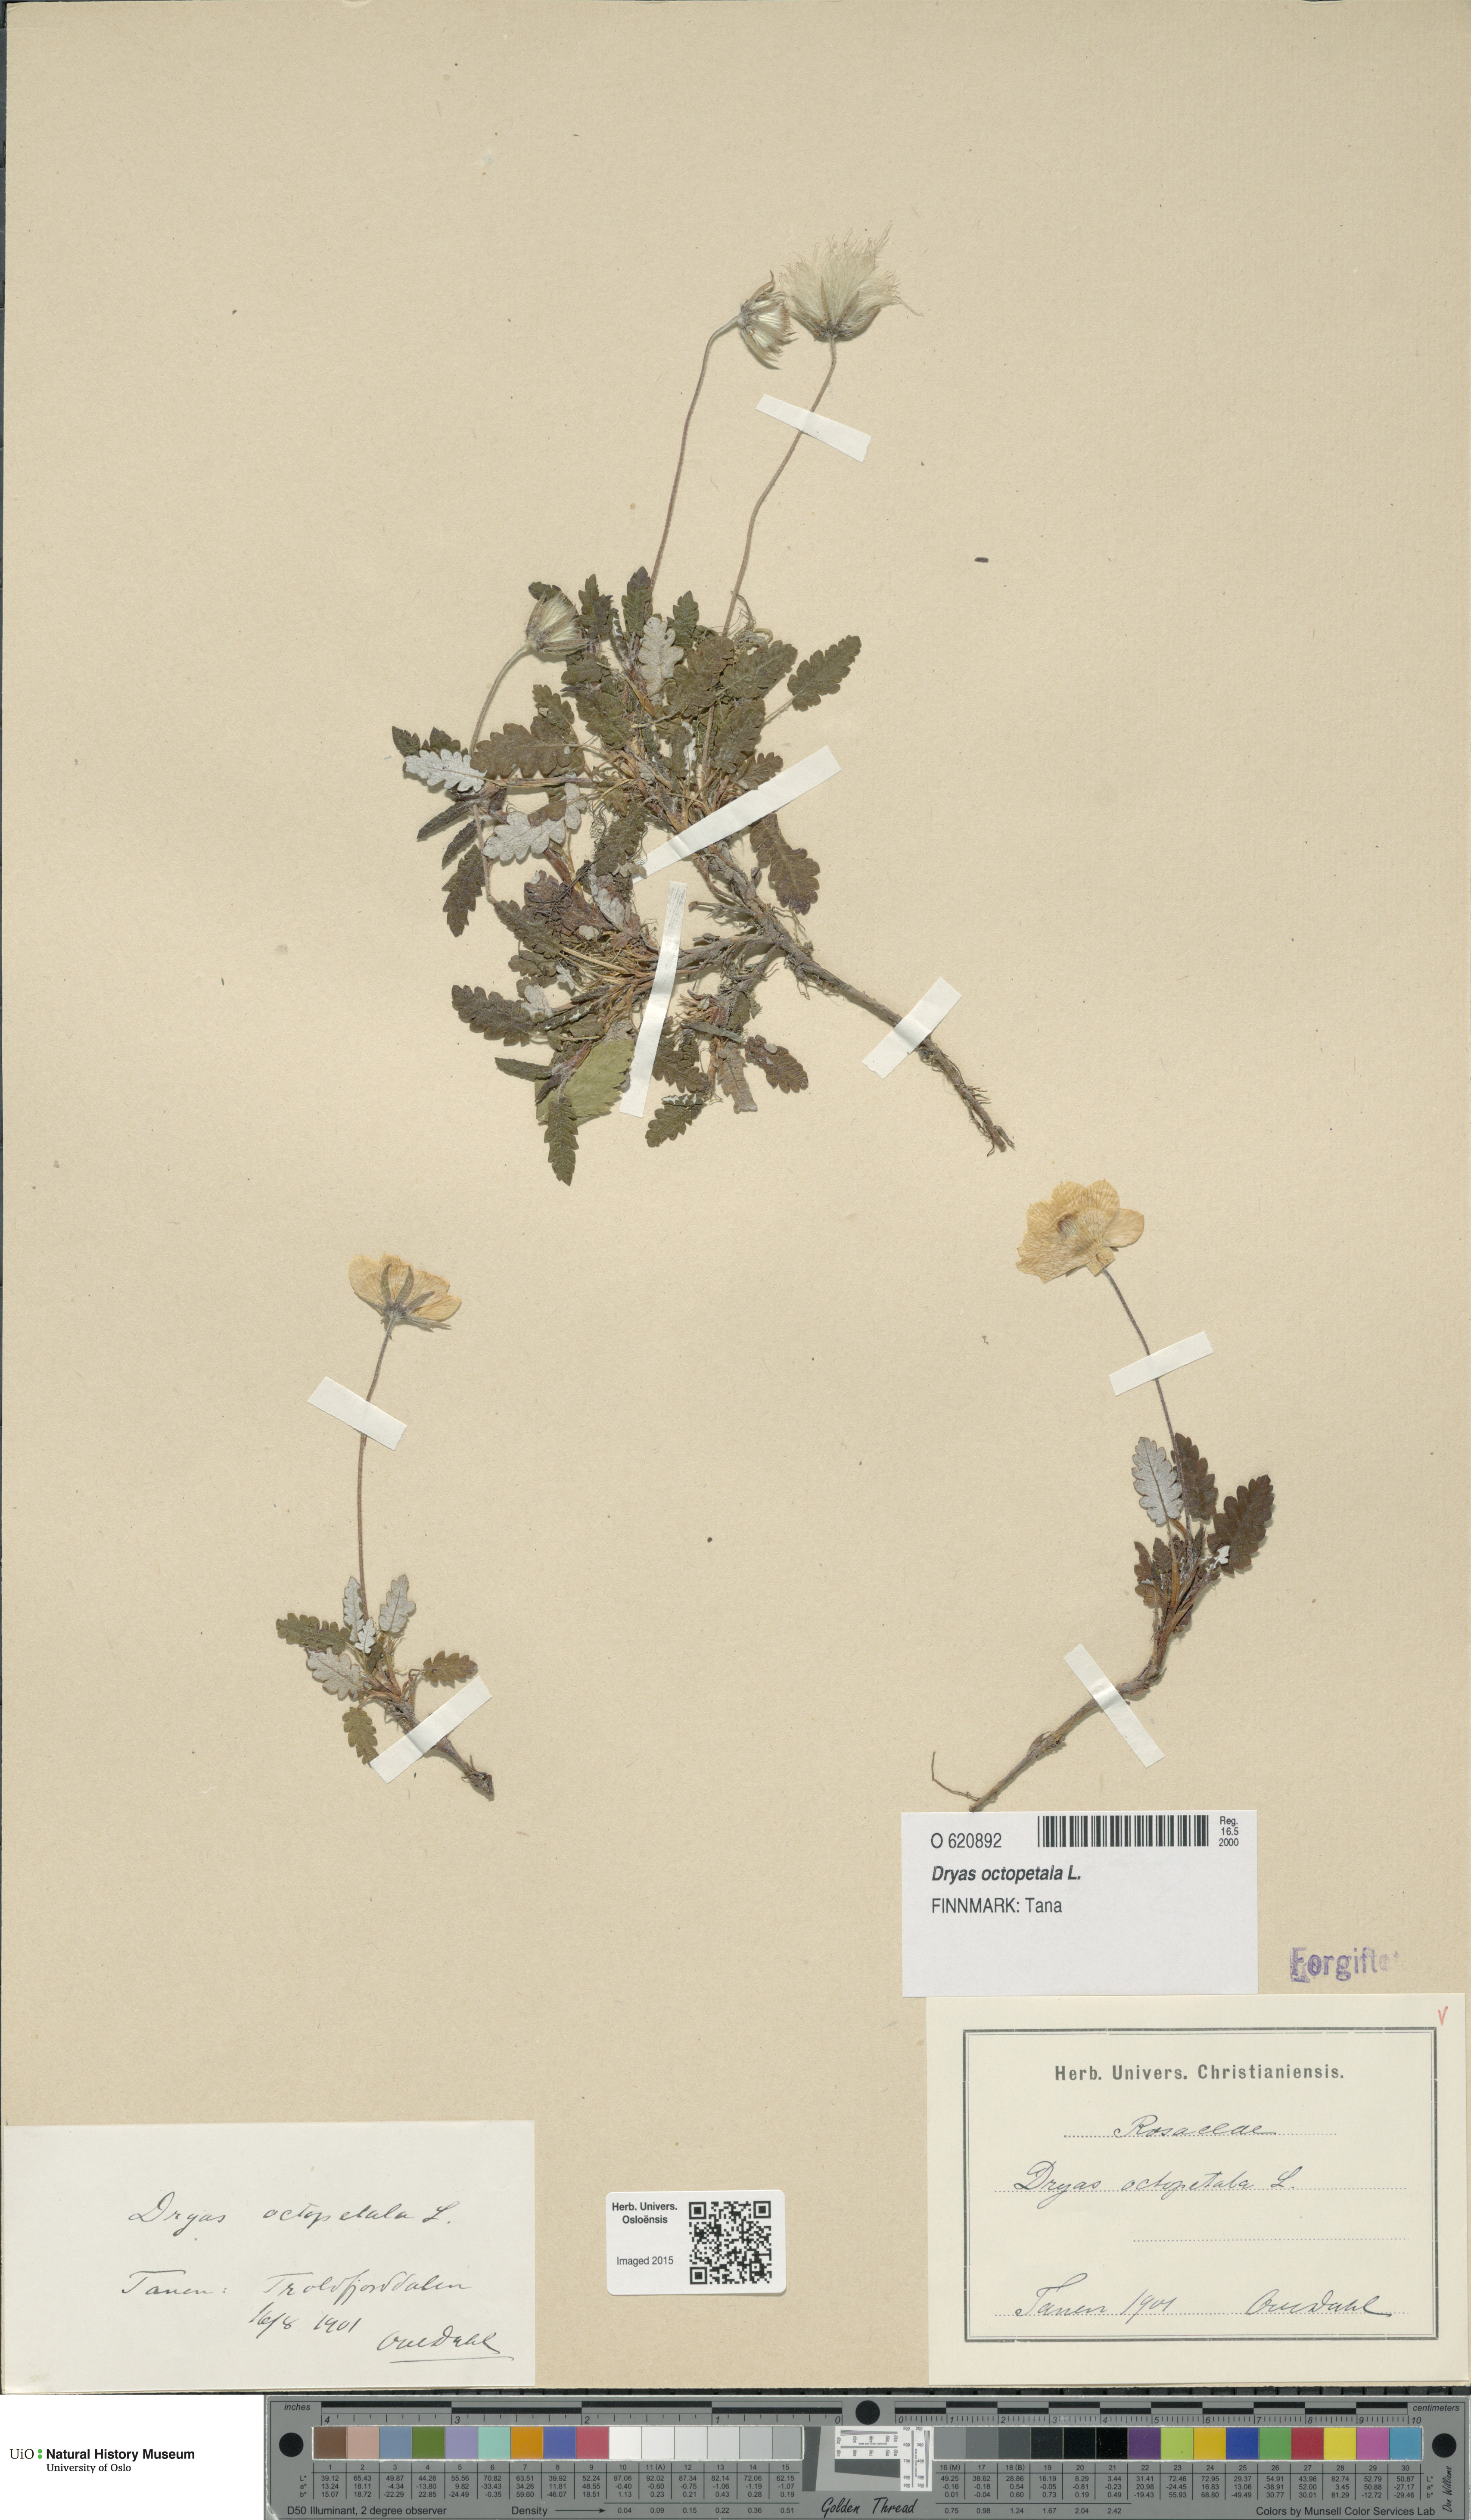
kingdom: Plantae
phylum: Tracheophyta
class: Magnoliopsida
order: Rosales
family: Rosaceae
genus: Dryas
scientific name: Dryas octopetala
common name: Eight-petal mountain-avens
